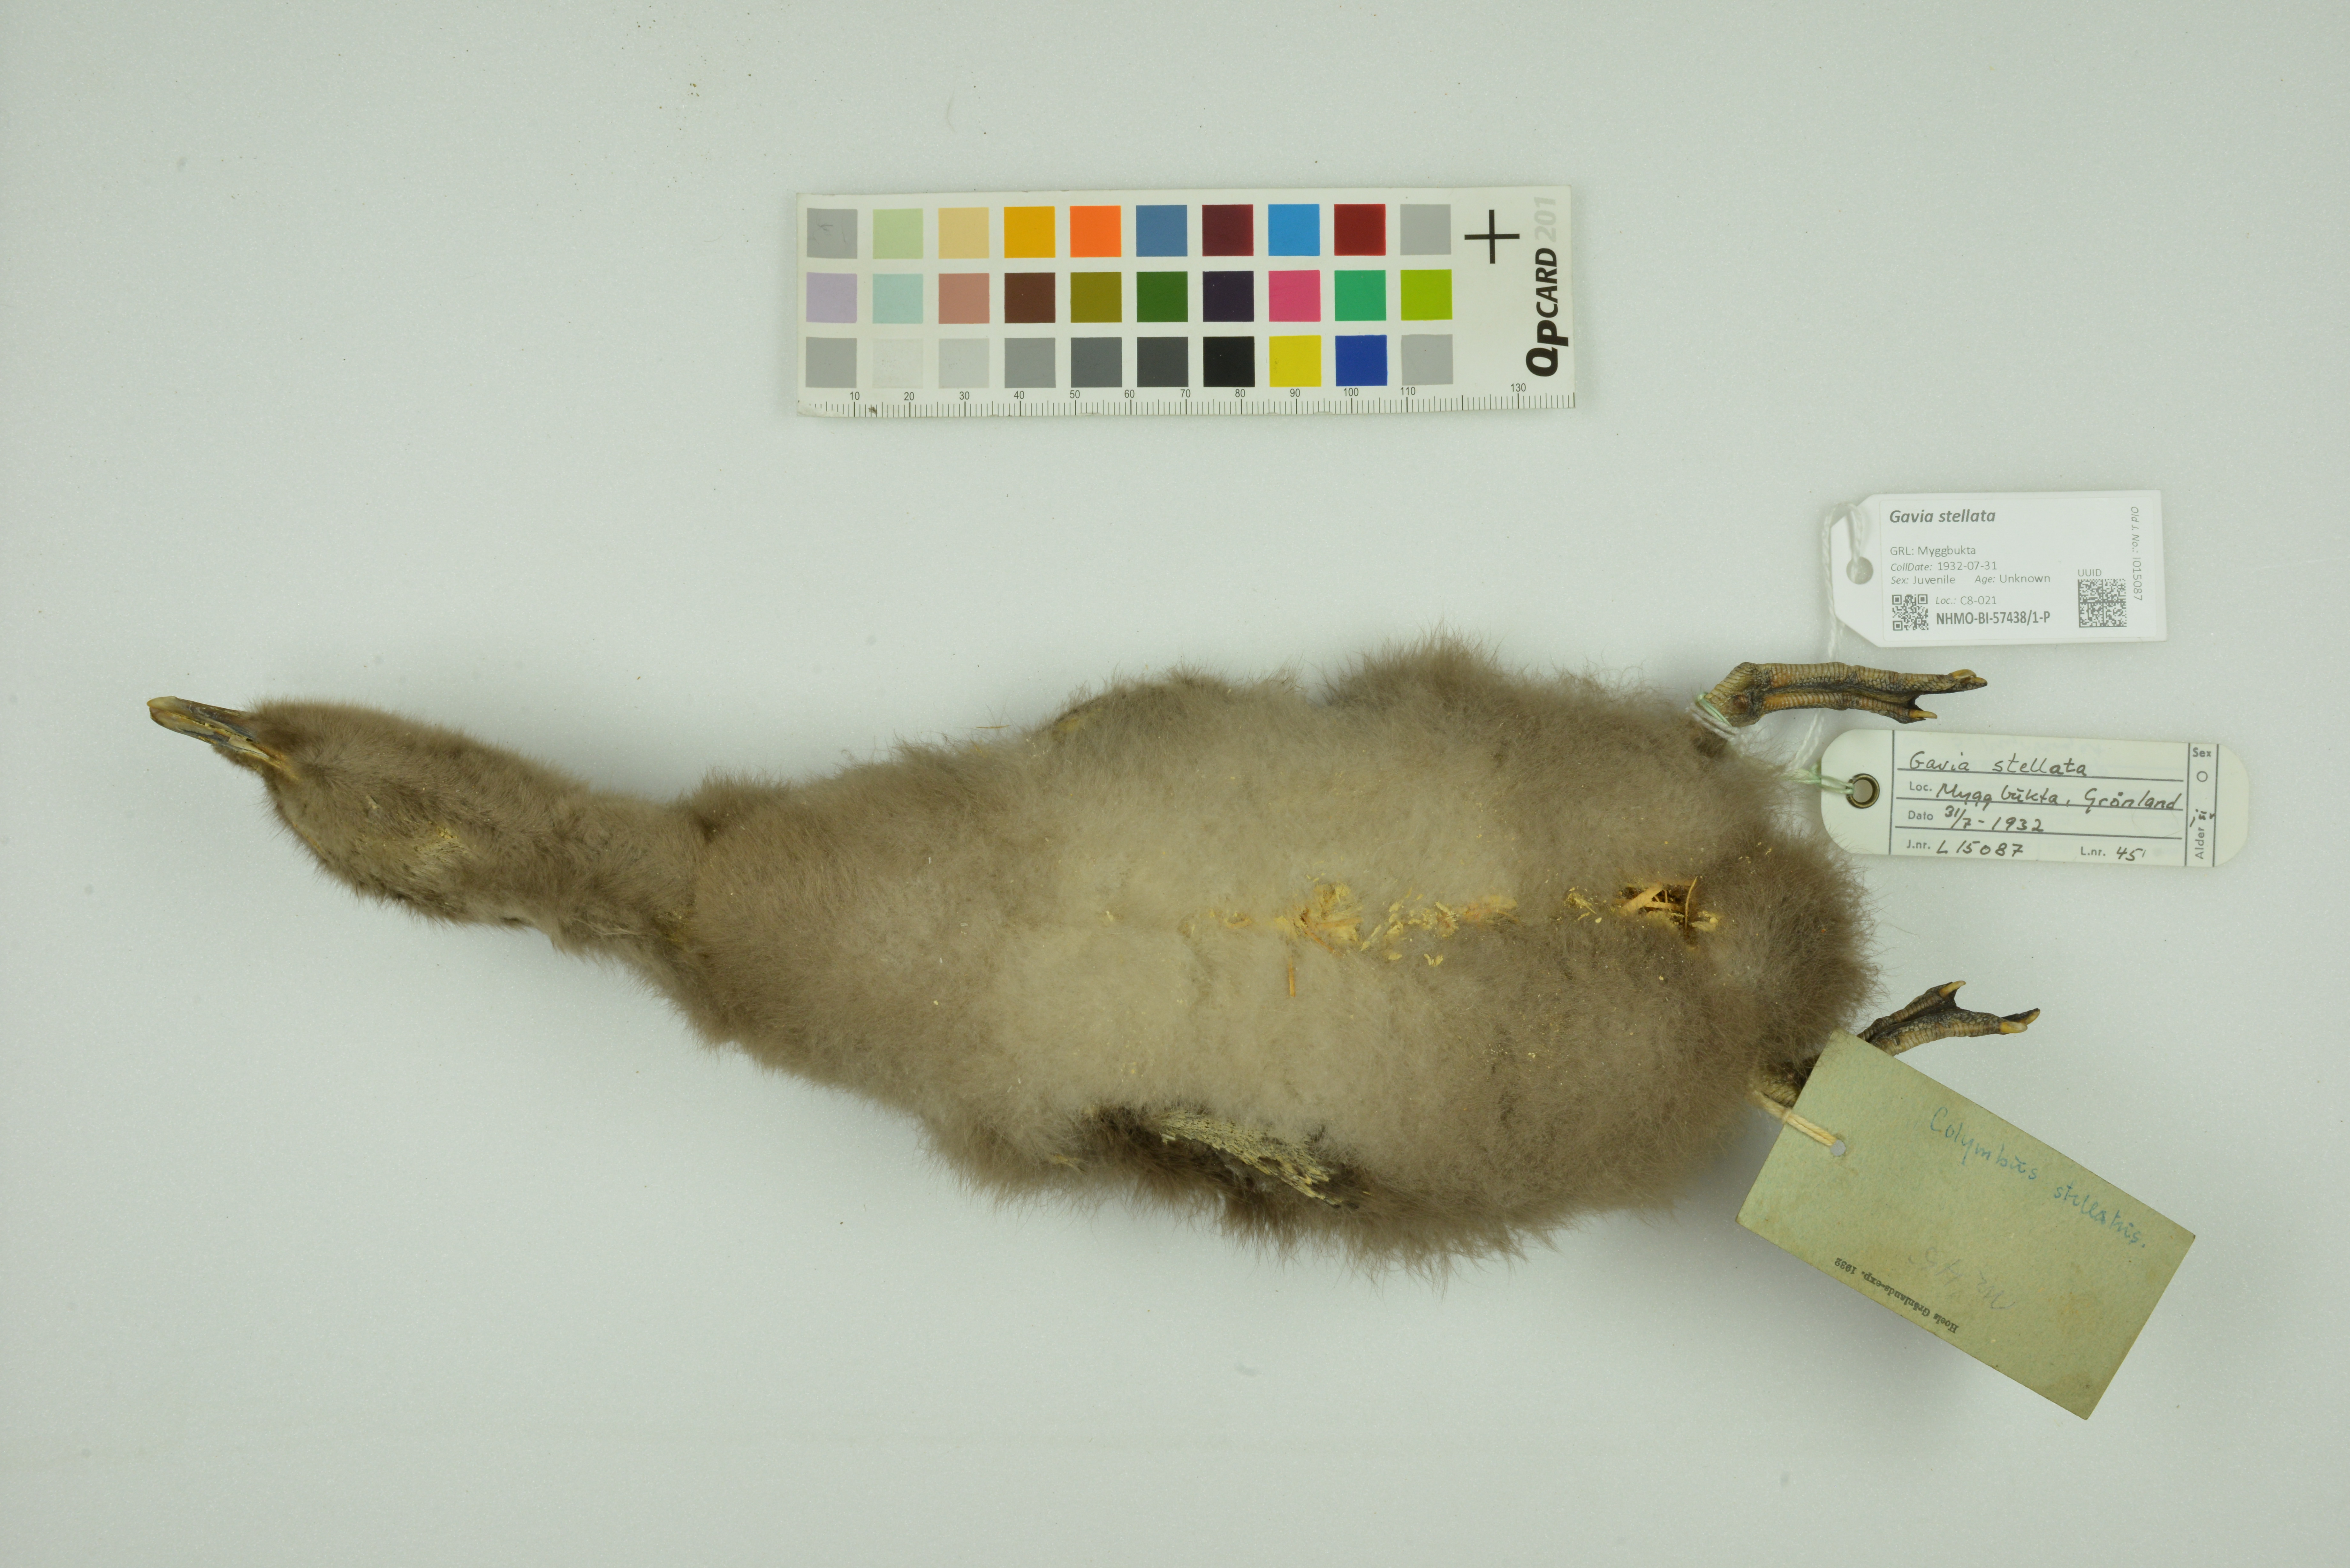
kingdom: Animalia
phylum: Chordata
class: Aves
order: Gaviiformes
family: Gaviidae
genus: Gavia
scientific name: Gavia stellata
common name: Red-throated loon
